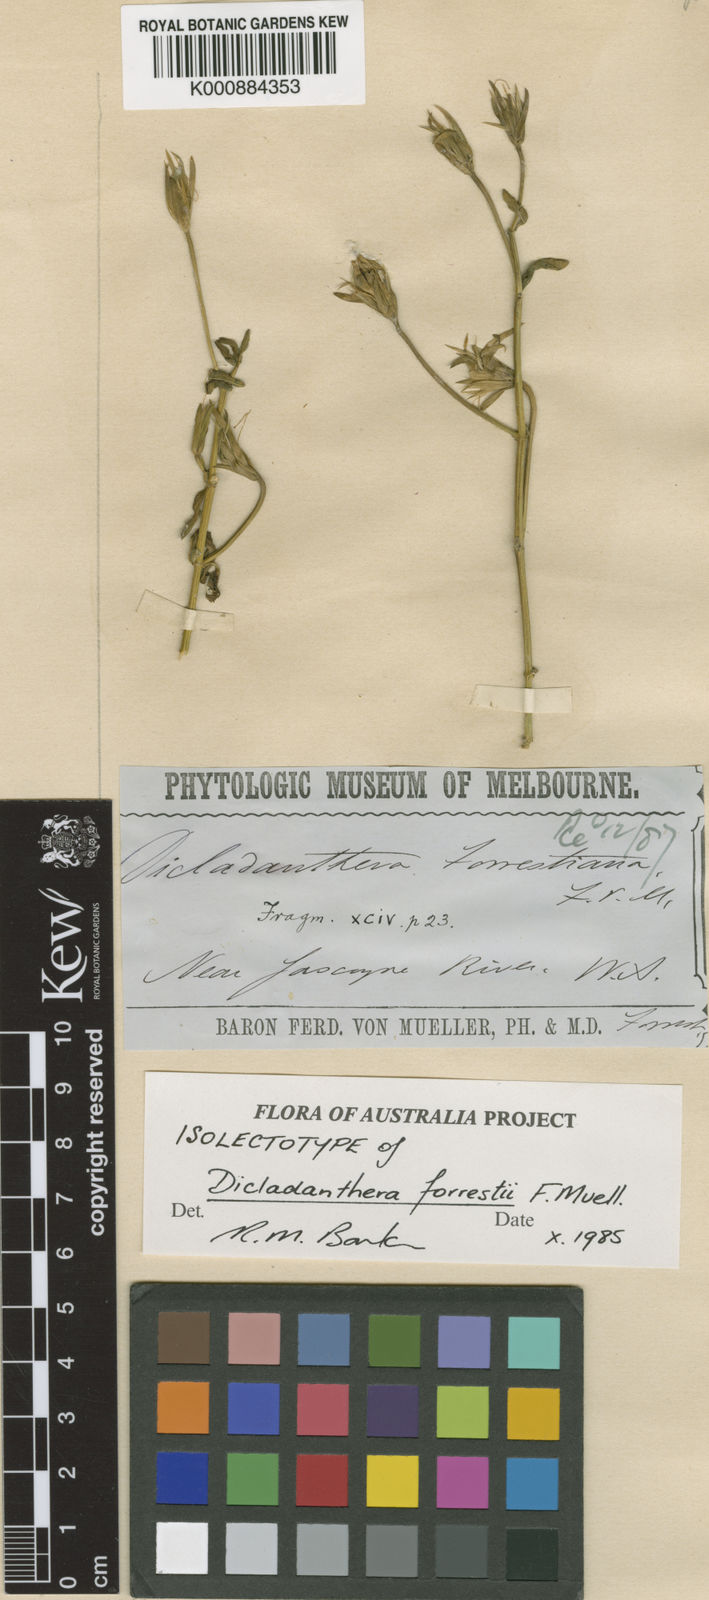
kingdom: Plantae
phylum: Tracheophyta
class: Magnoliopsida
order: Lamiales
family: Acanthaceae
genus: Dicladanthera
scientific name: Dicladanthera forrestii
